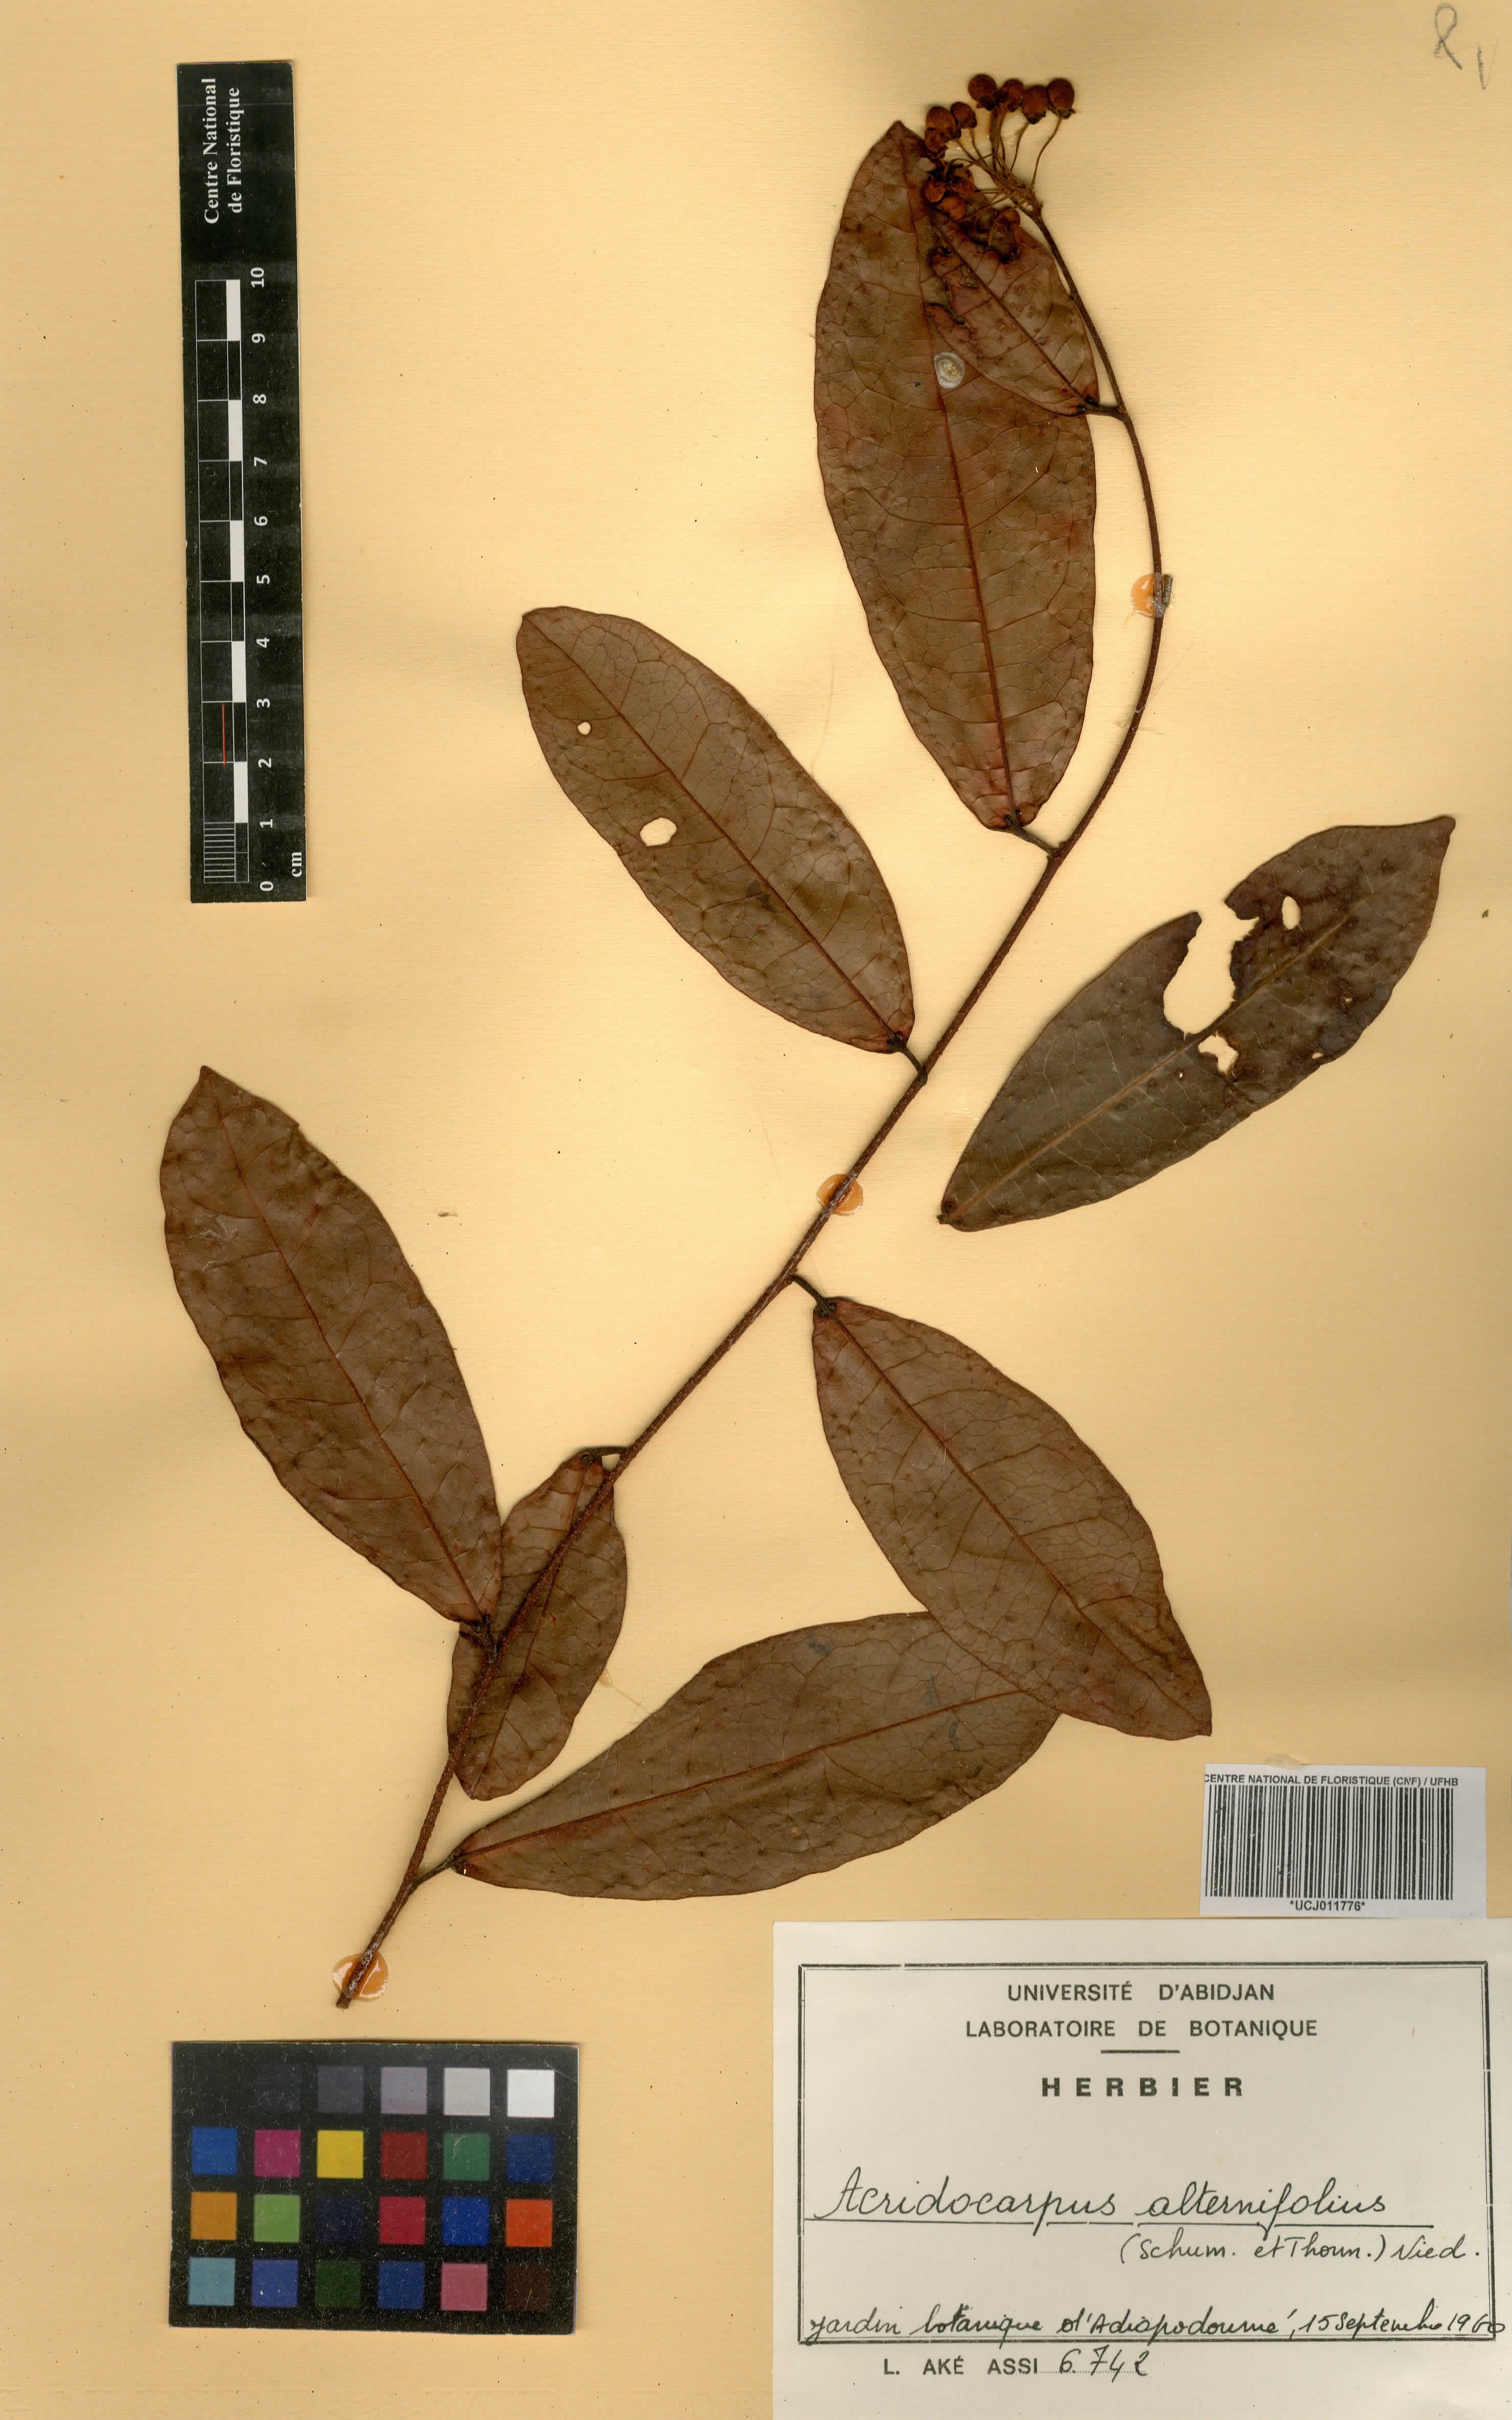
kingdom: Plantae
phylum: Tracheophyta
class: Magnoliopsida
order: Malpighiales
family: Malpighiaceae
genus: Acridocarpus
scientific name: Acridocarpus alternifolius
